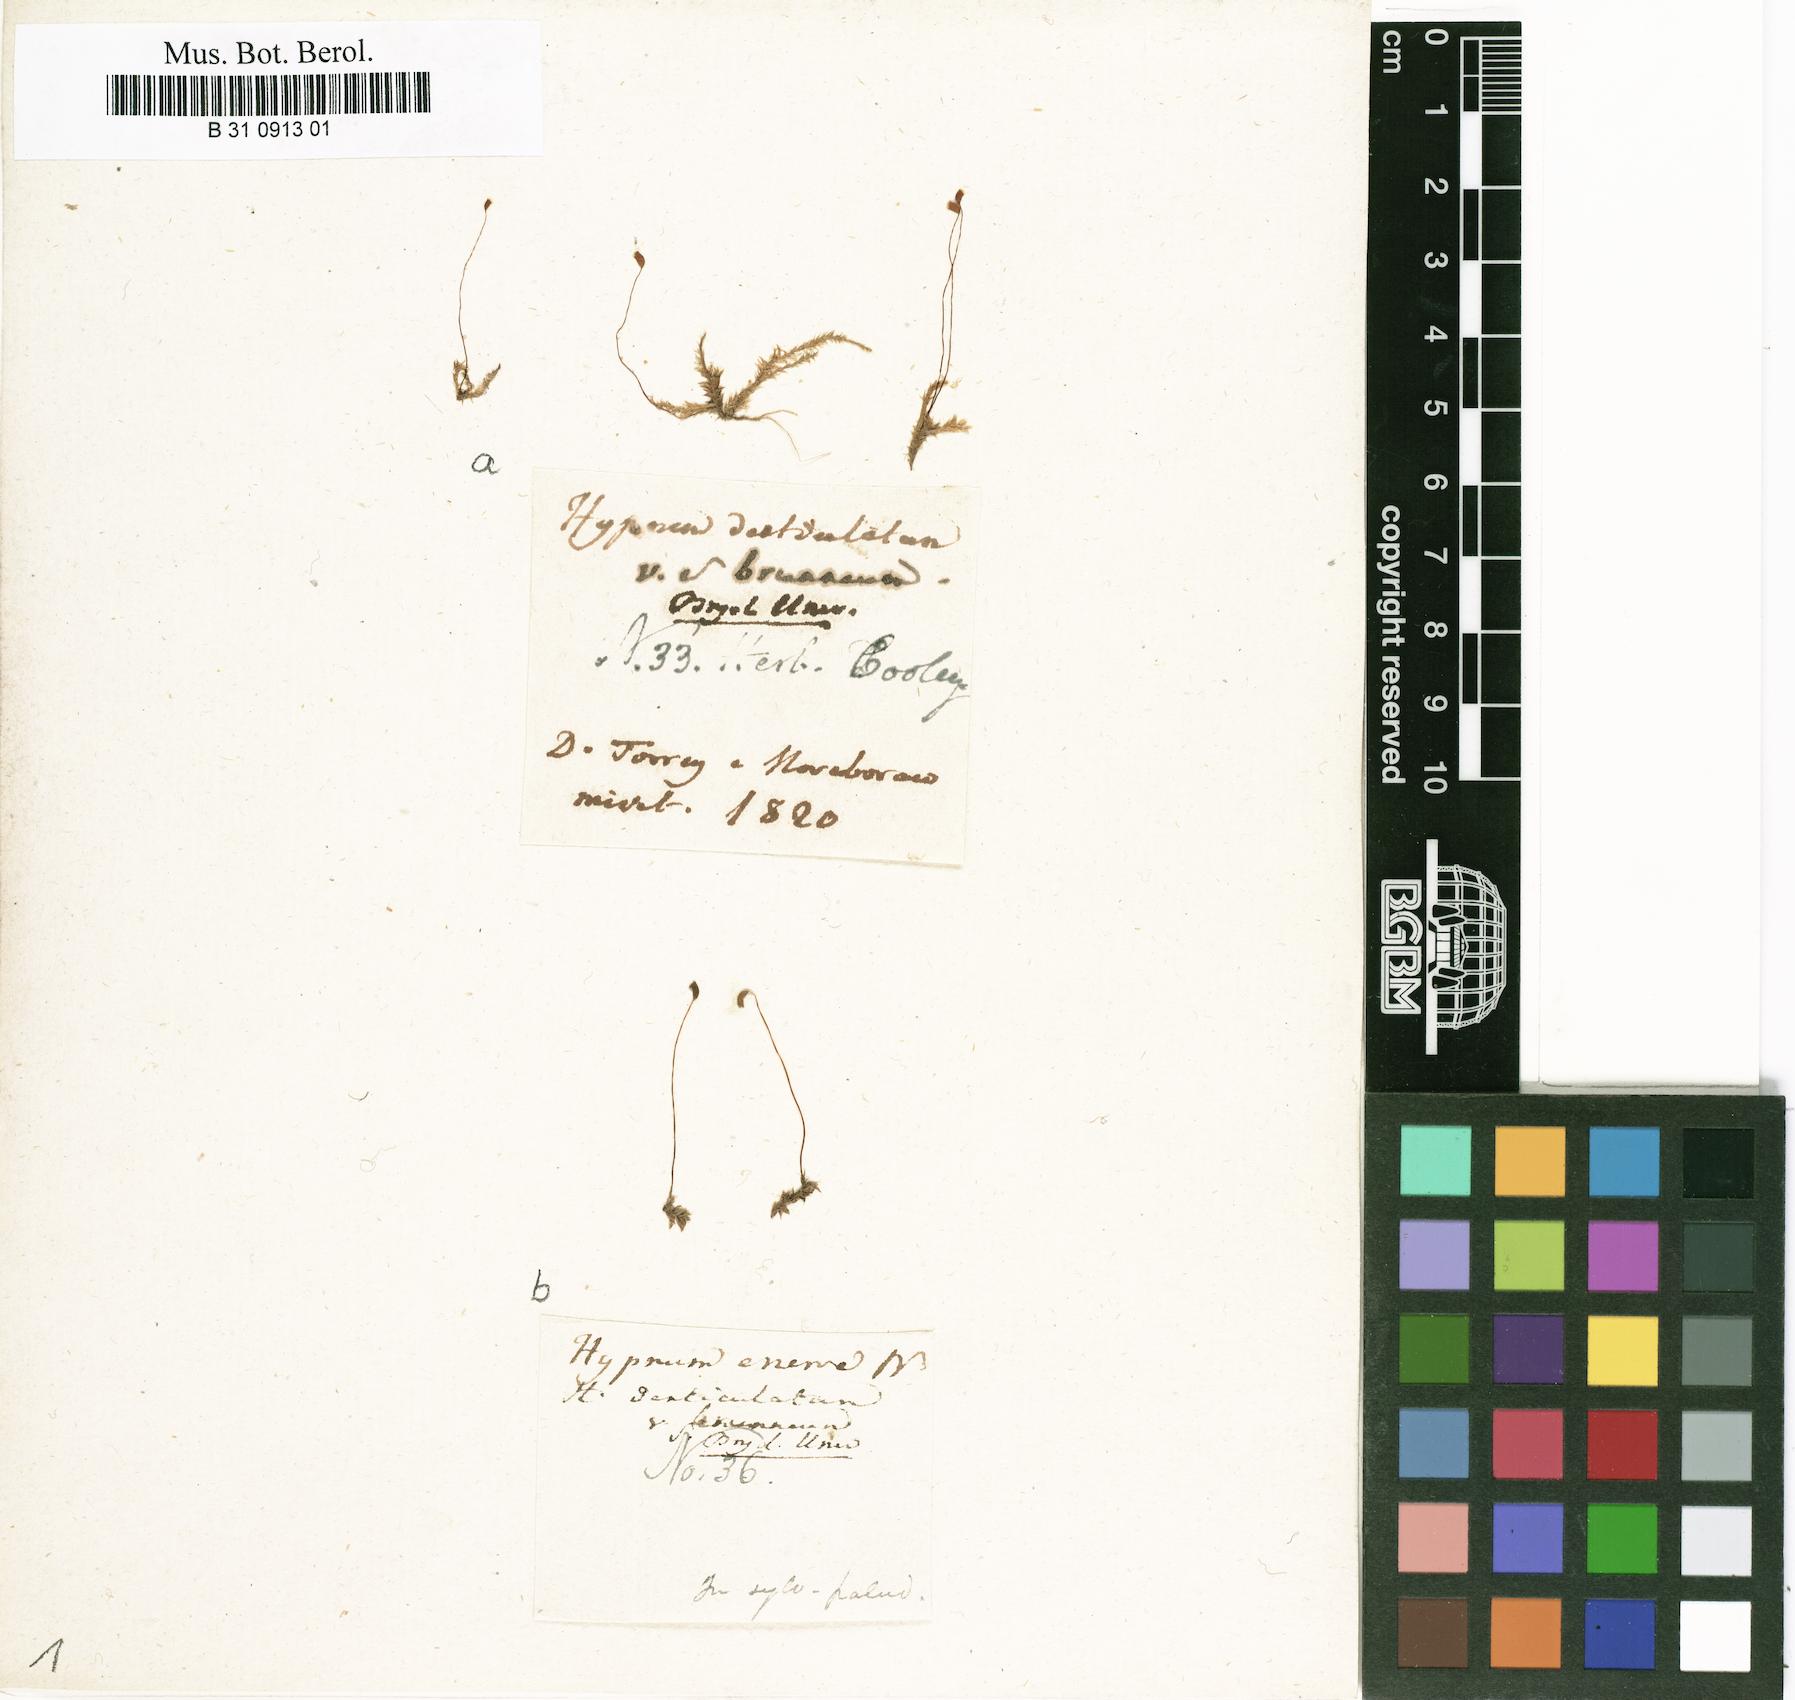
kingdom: Plantae
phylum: Bryophyta
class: Bryopsida
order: Hypnales
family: Plagiotheciaceae
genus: Plagiothecium
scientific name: Plagiothecium denticulatum
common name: Dented silk moss
